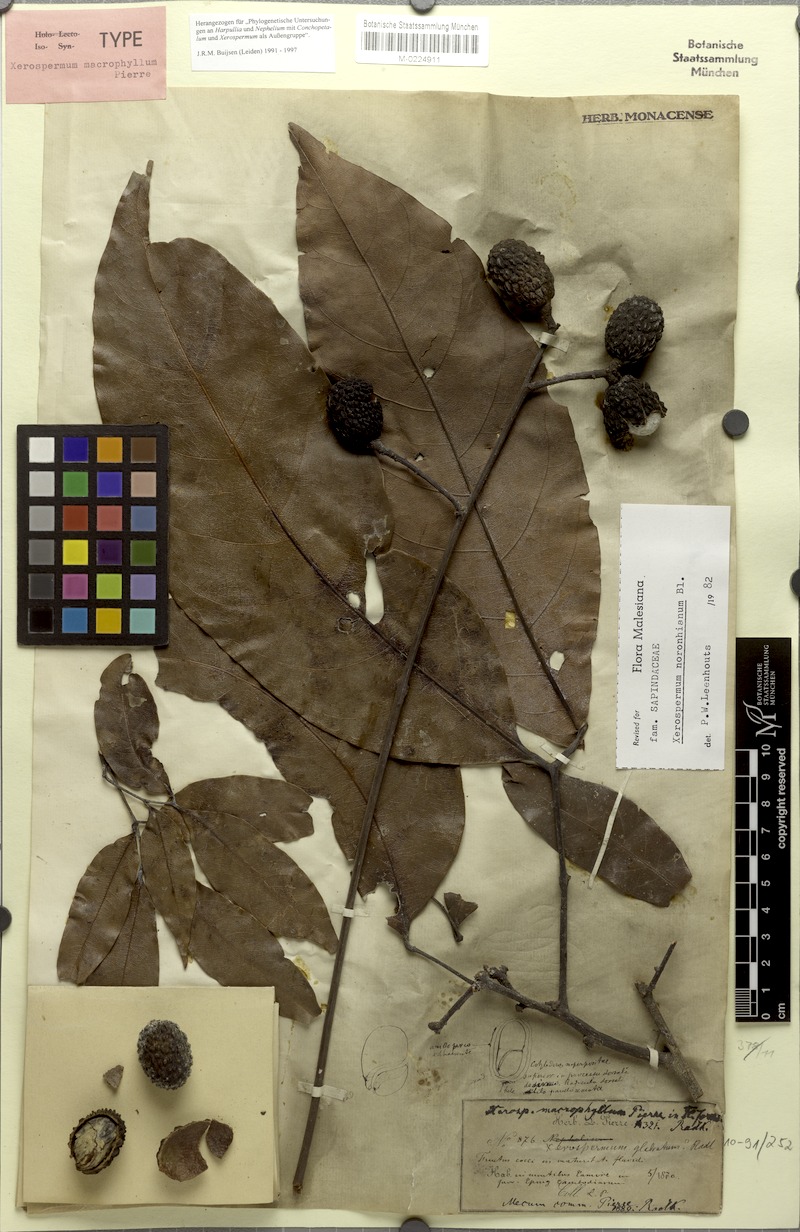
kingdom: Plantae
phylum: Tracheophyta
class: Magnoliopsida
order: Sapindales
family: Sapindaceae
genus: Xerospermum
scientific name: Xerospermum noronhianum
